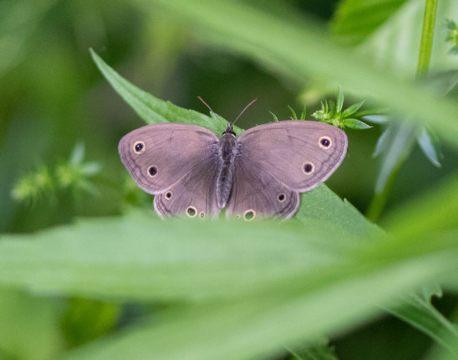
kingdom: Animalia
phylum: Arthropoda
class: Insecta
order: Lepidoptera
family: Nymphalidae
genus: Euptychia
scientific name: Euptychia cymela
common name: Little Wood Satyr
